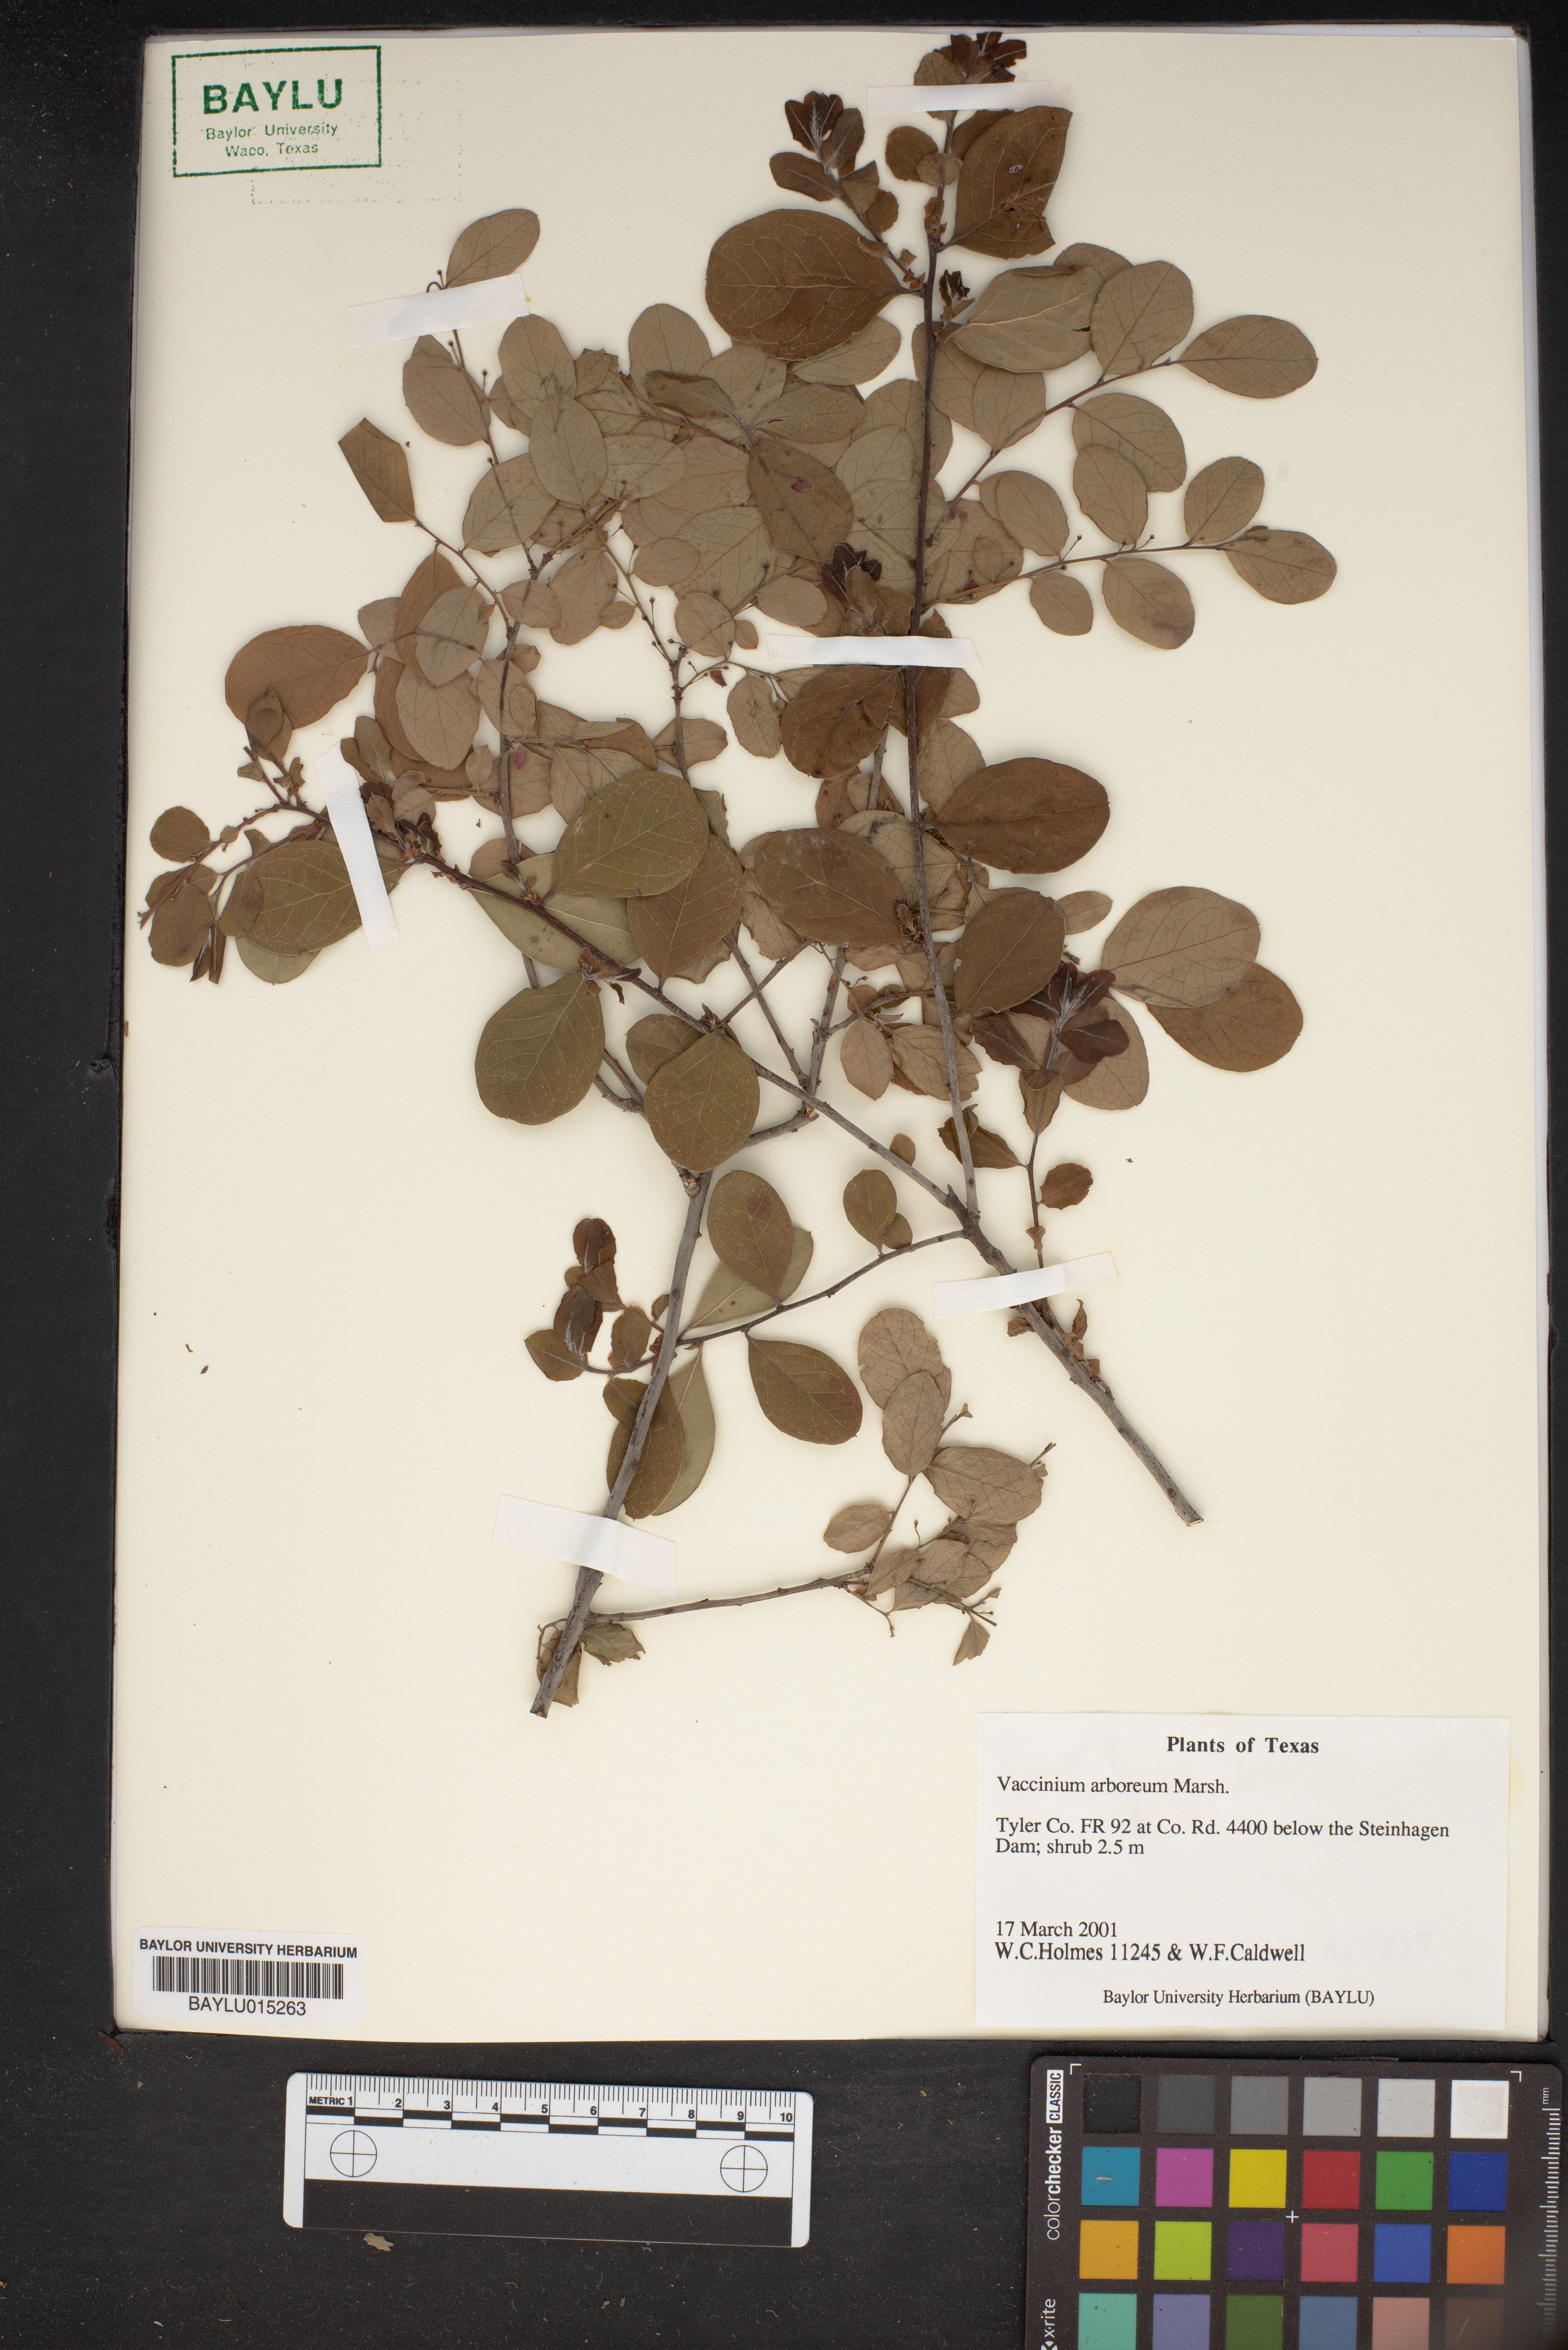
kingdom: Plantae
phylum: Tracheophyta
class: Magnoliopsida
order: Ericales
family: Ericaceae
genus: Vaccinium
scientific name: Vaccinium arboreum
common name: Farkleberry
